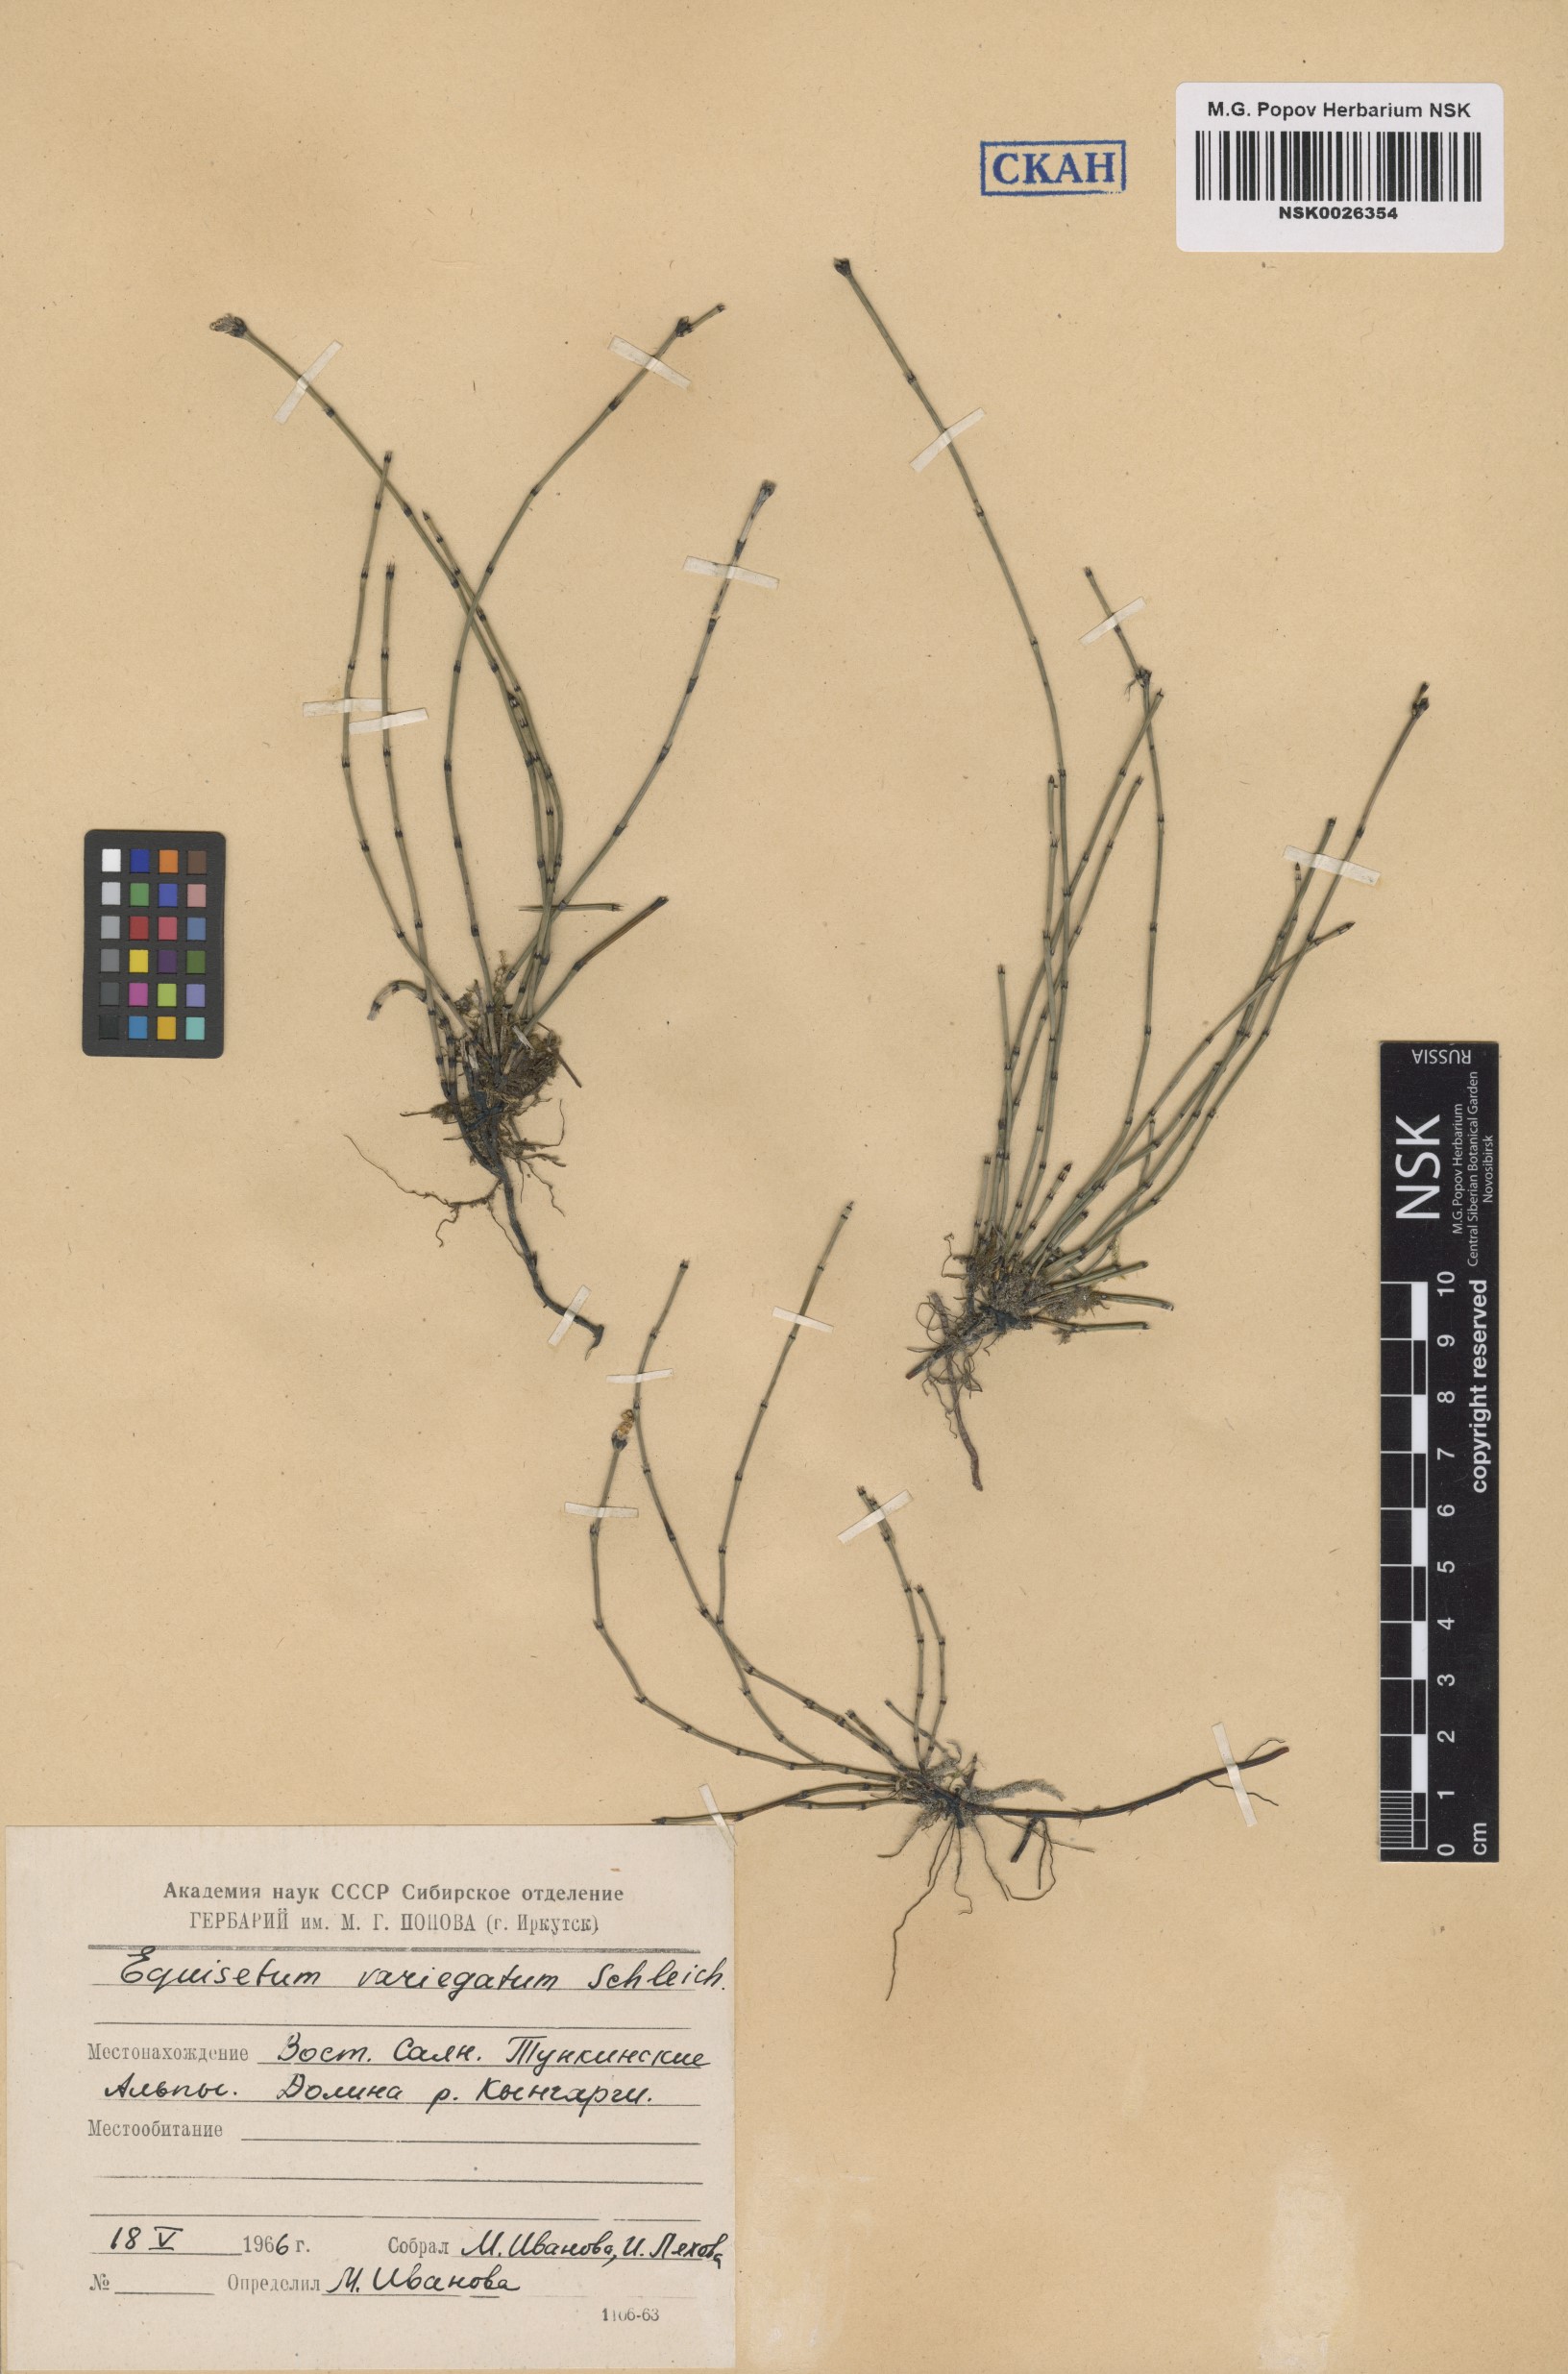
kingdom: Plantae
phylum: Tracheophyta
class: Polypodiopsida
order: Equisetales
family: Equisetaceae
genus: Equisetum
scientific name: Equisetum variegatum
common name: Variegated horsetail
